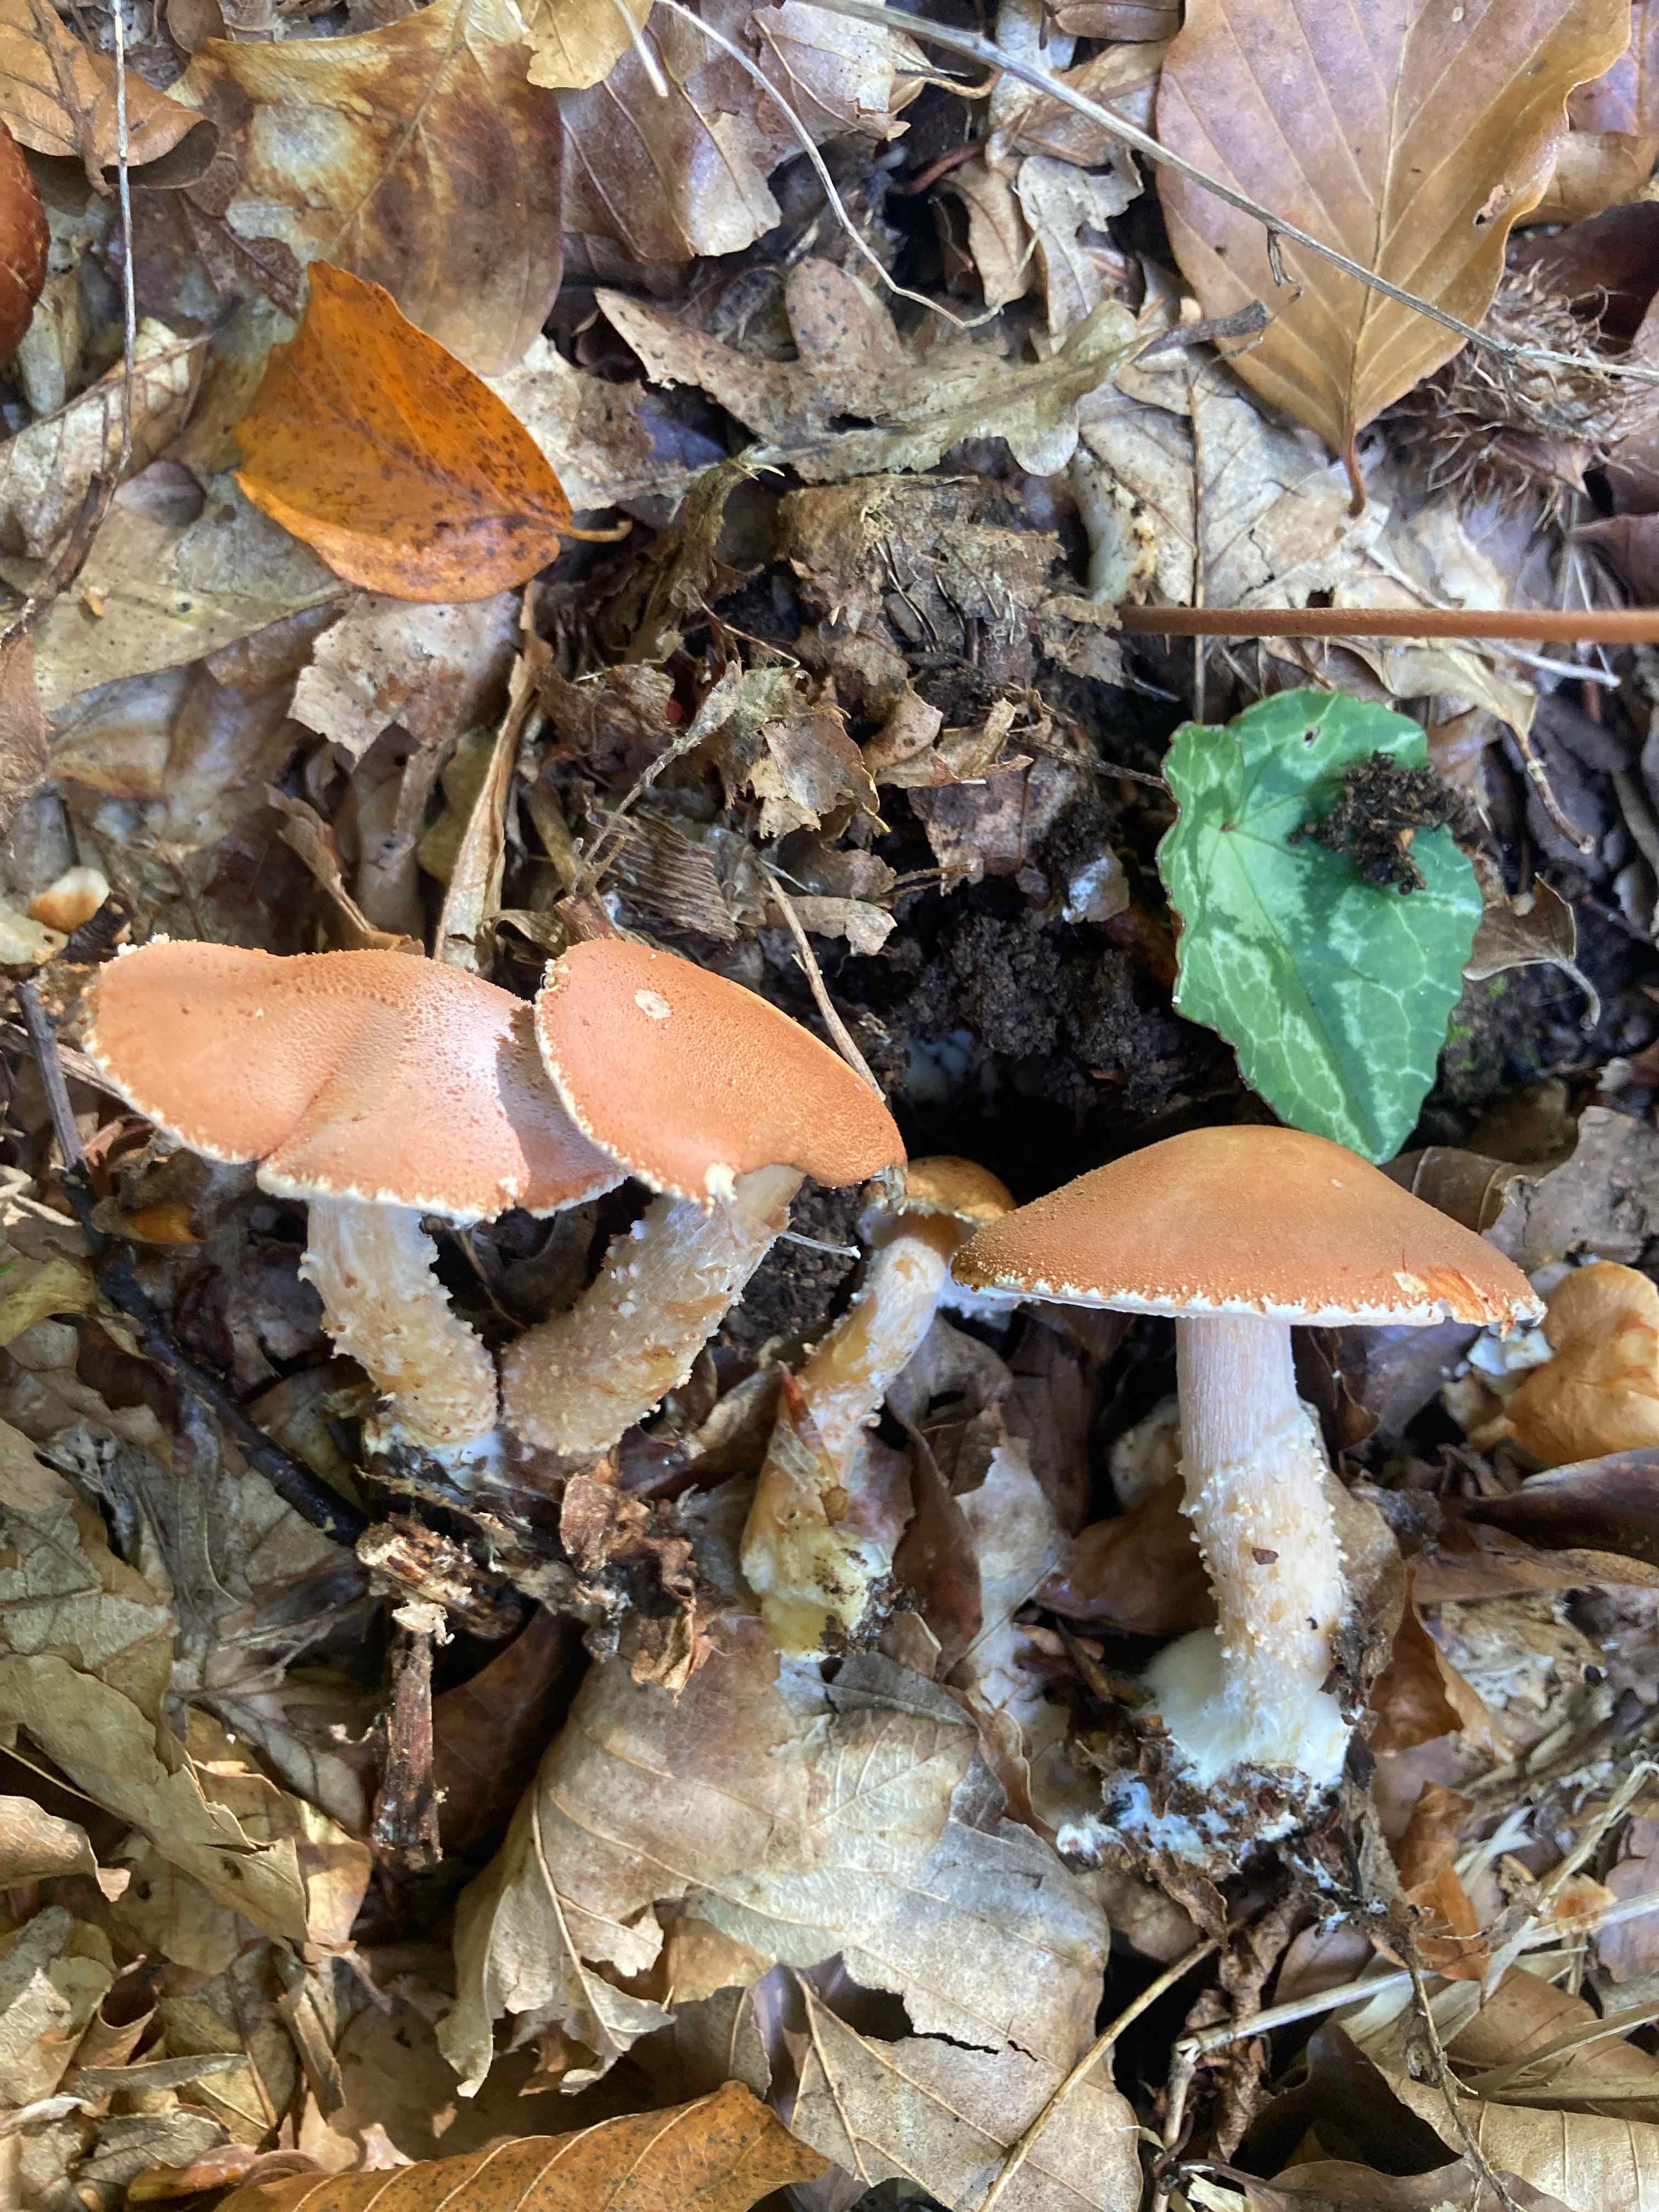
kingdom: Fungi
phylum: Basidiomycota
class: Agaricomycetes
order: Agaricales
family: Agaricaceae
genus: Cystodermella
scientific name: Cystodermella cinnabarina
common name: cinnober-grynhat
